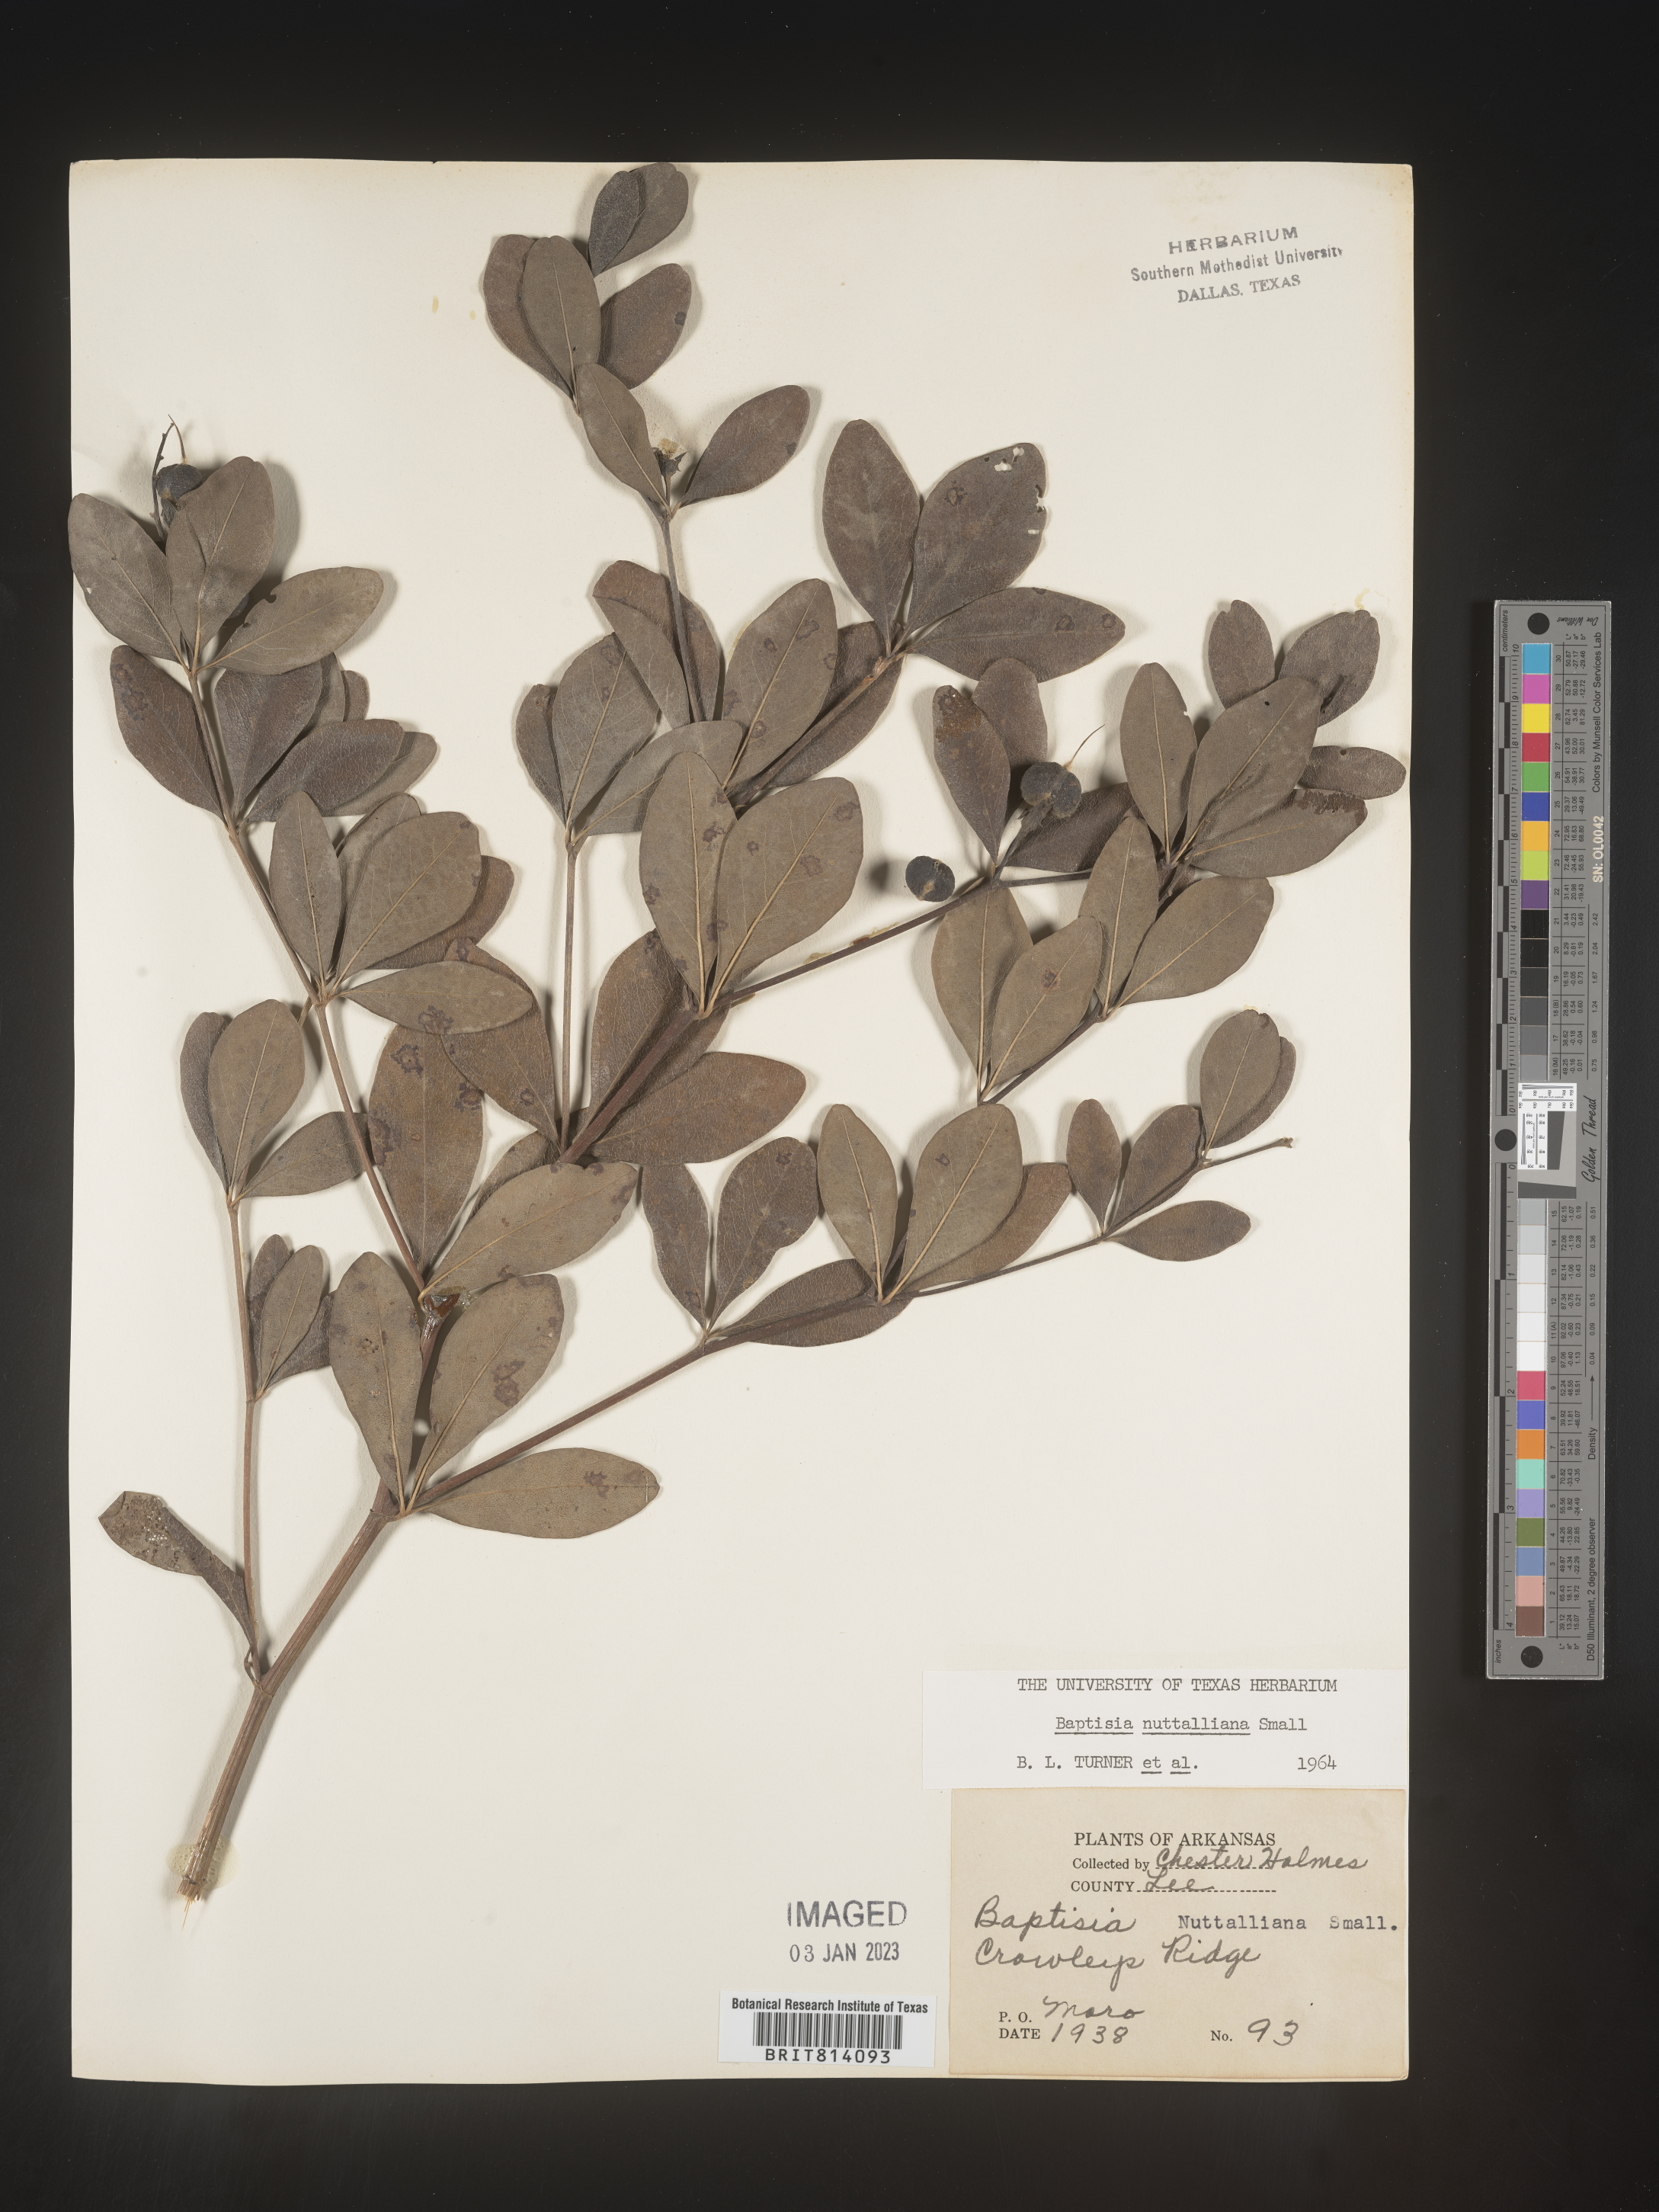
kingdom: Plantae
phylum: Tracheophyta
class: Magnoliopsida
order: Fabales
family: Fabaceae
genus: Baptisia
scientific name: Baptisia nuttalliana
